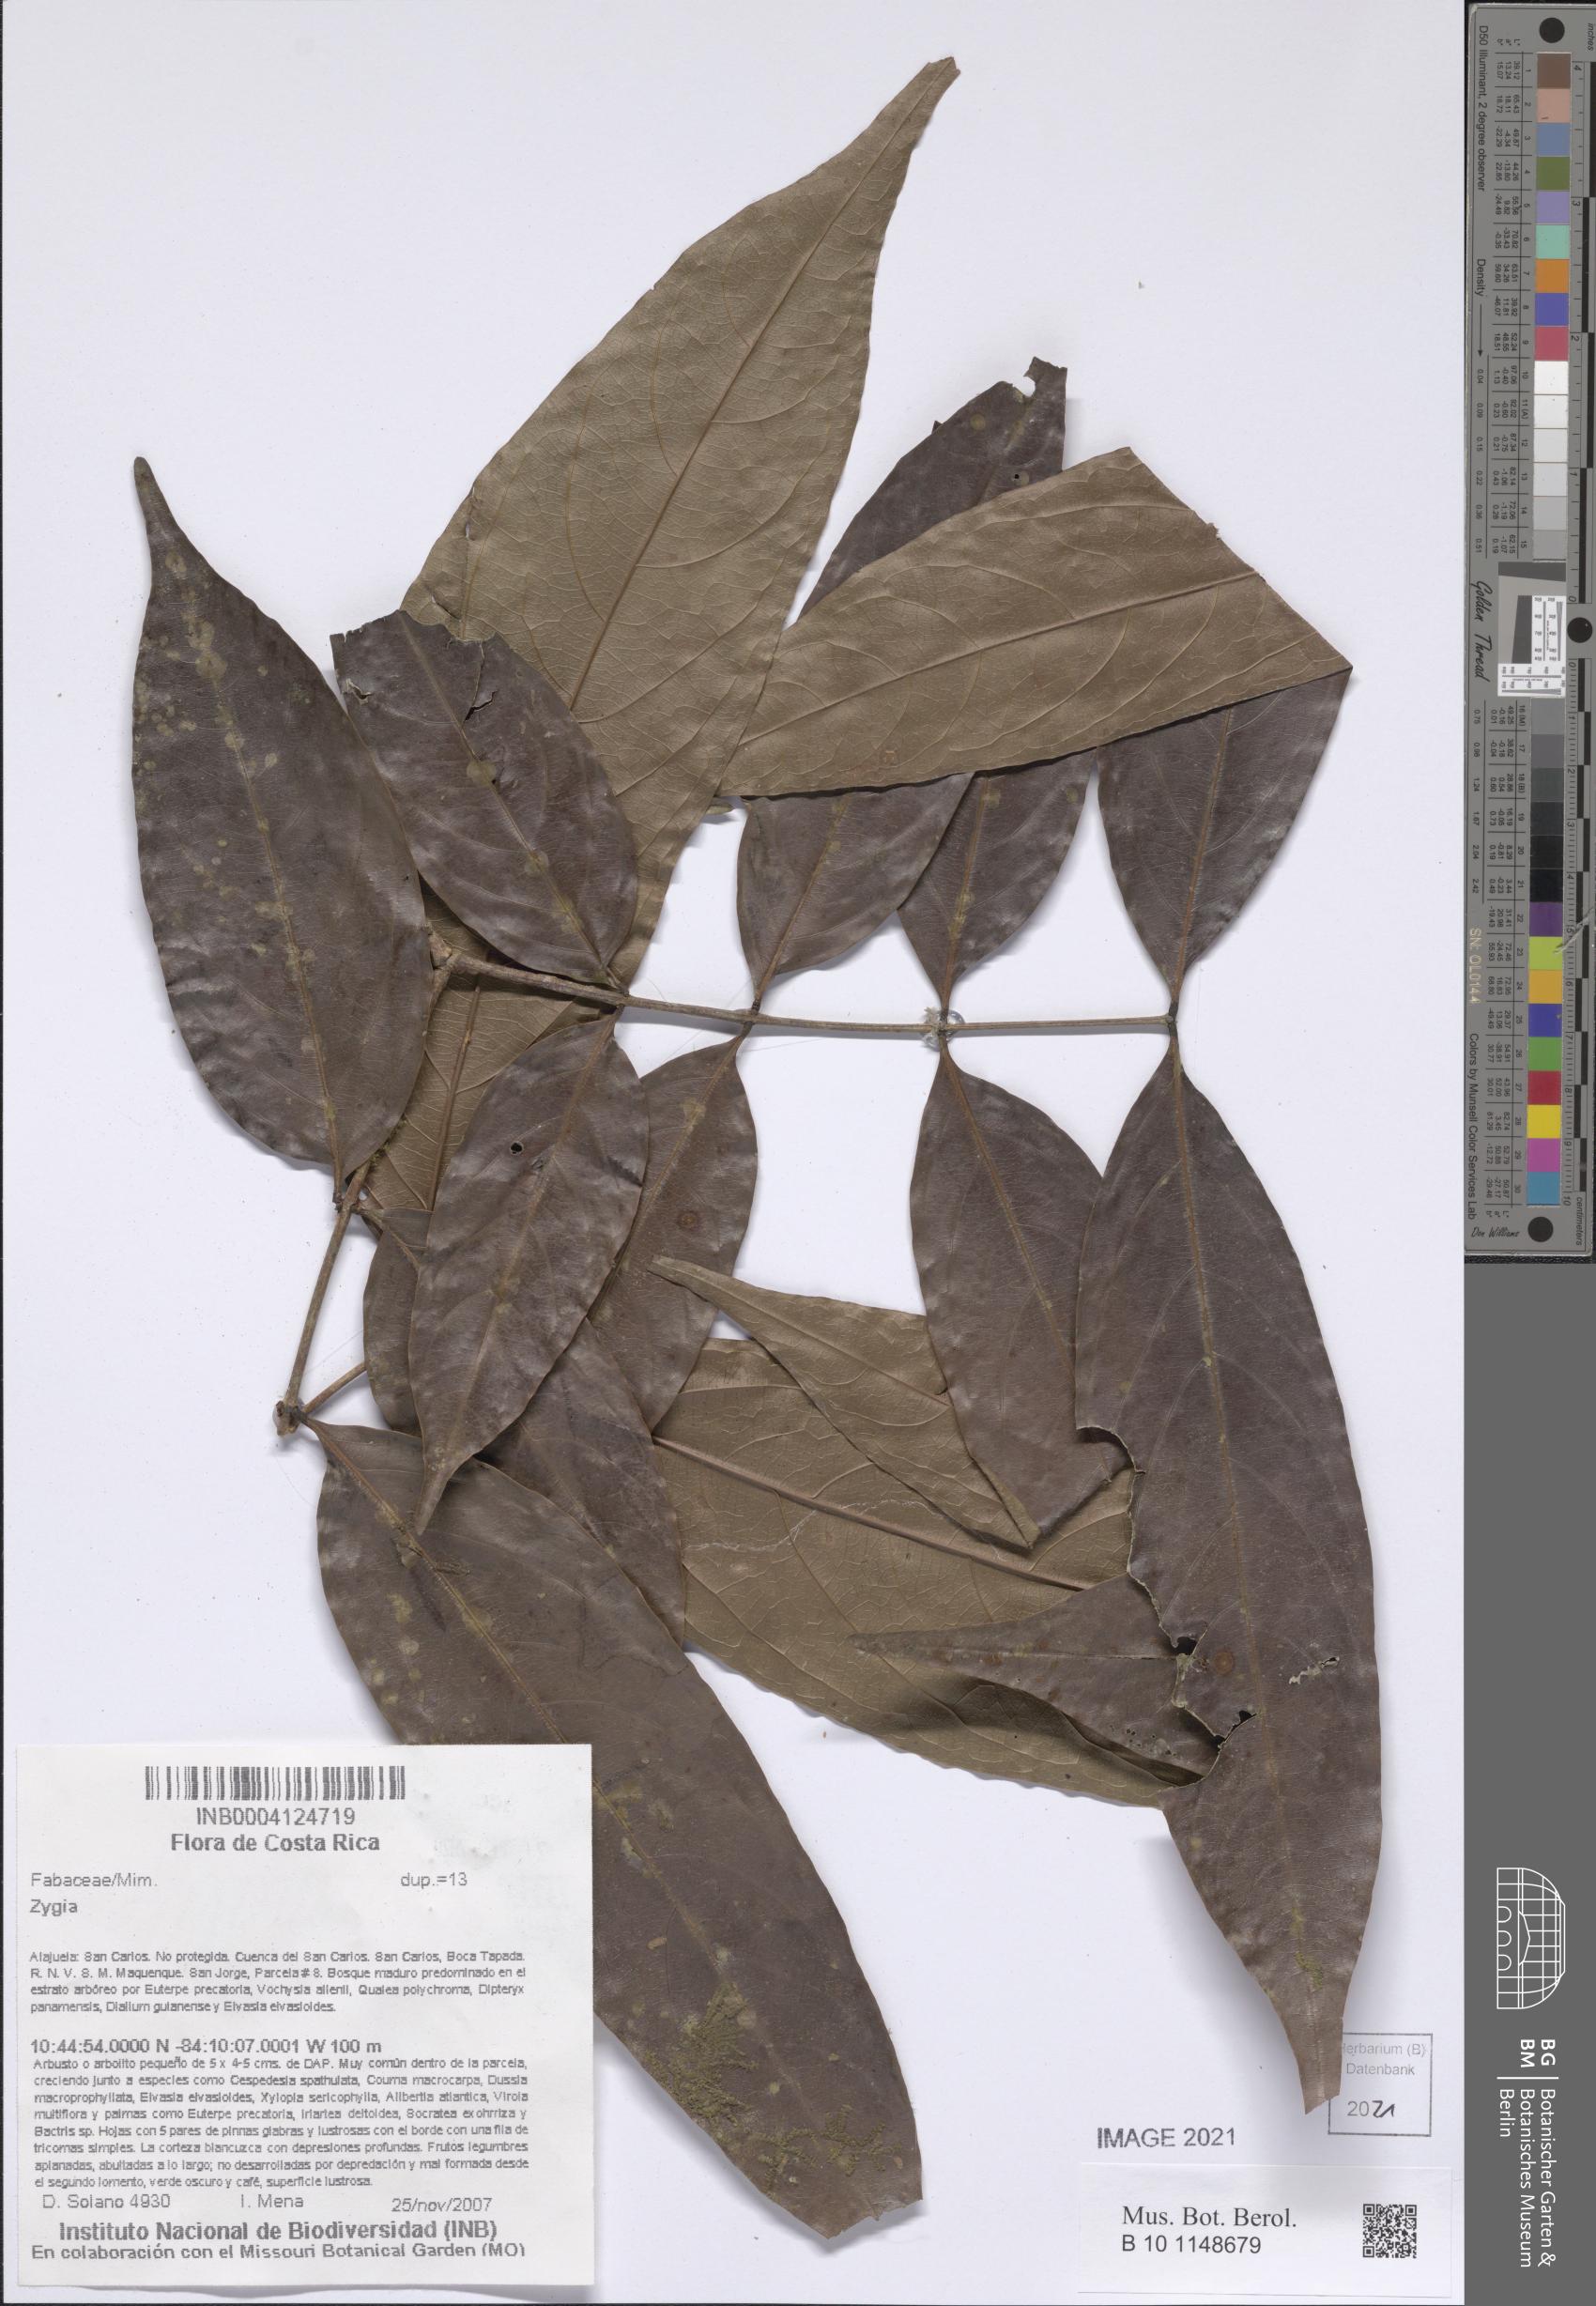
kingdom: Plantae
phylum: Tracheophyta
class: Magnoliopsida
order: Fabales
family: Fabaceae
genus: Zygia
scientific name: Zygia
